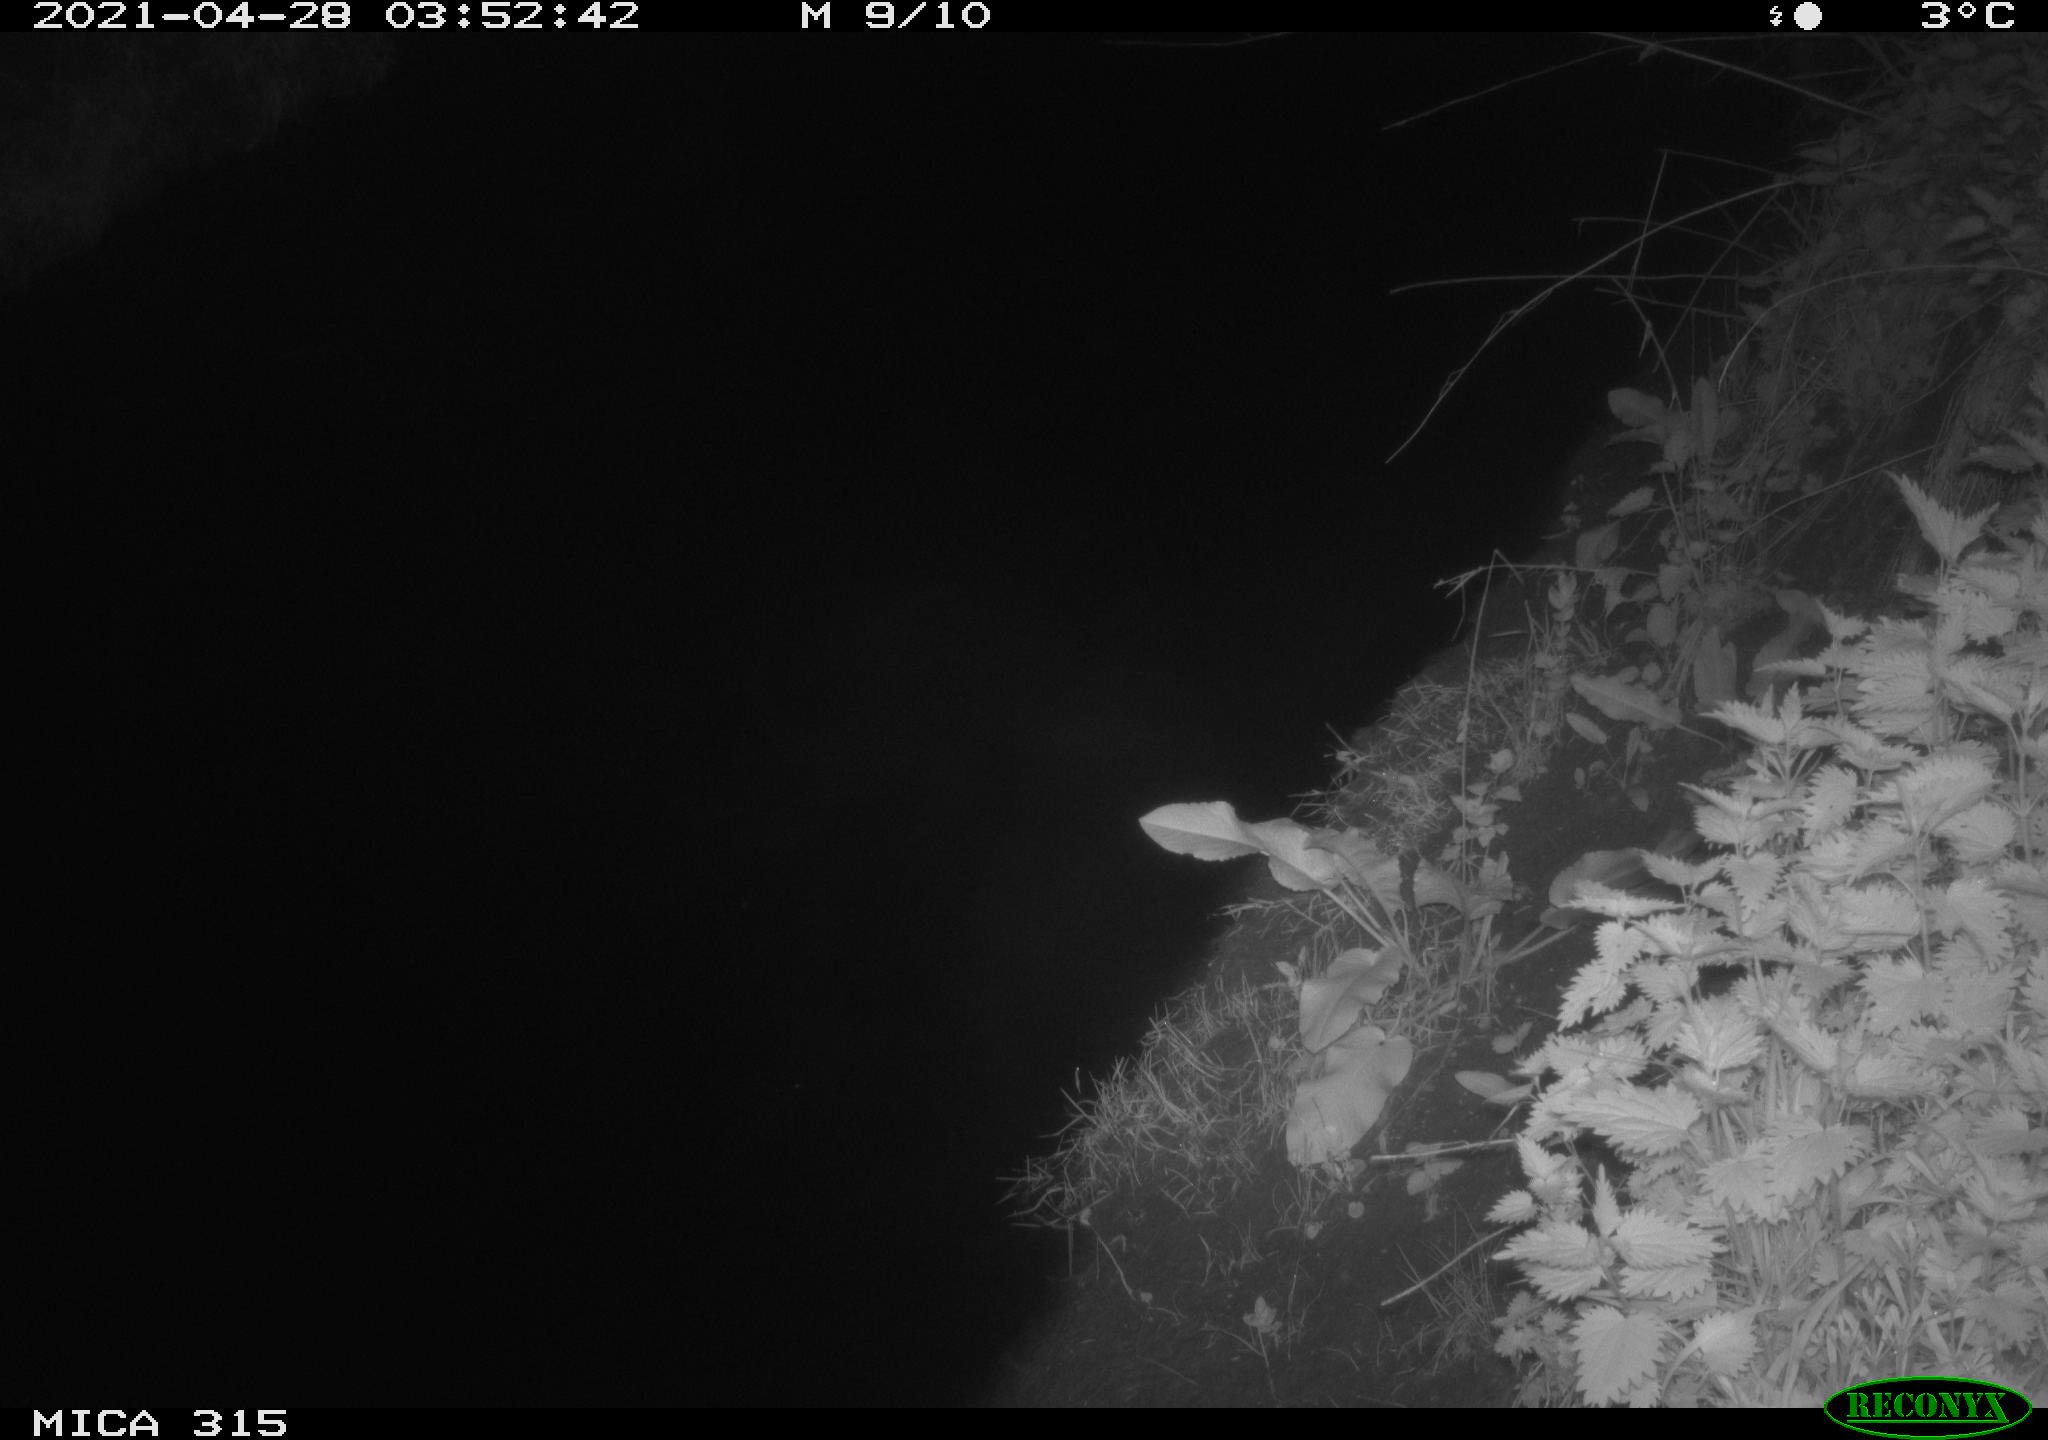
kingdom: Animalia
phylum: Chordata
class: Aves
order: Anseriformes
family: Anatidae
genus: Anas
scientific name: Anas
